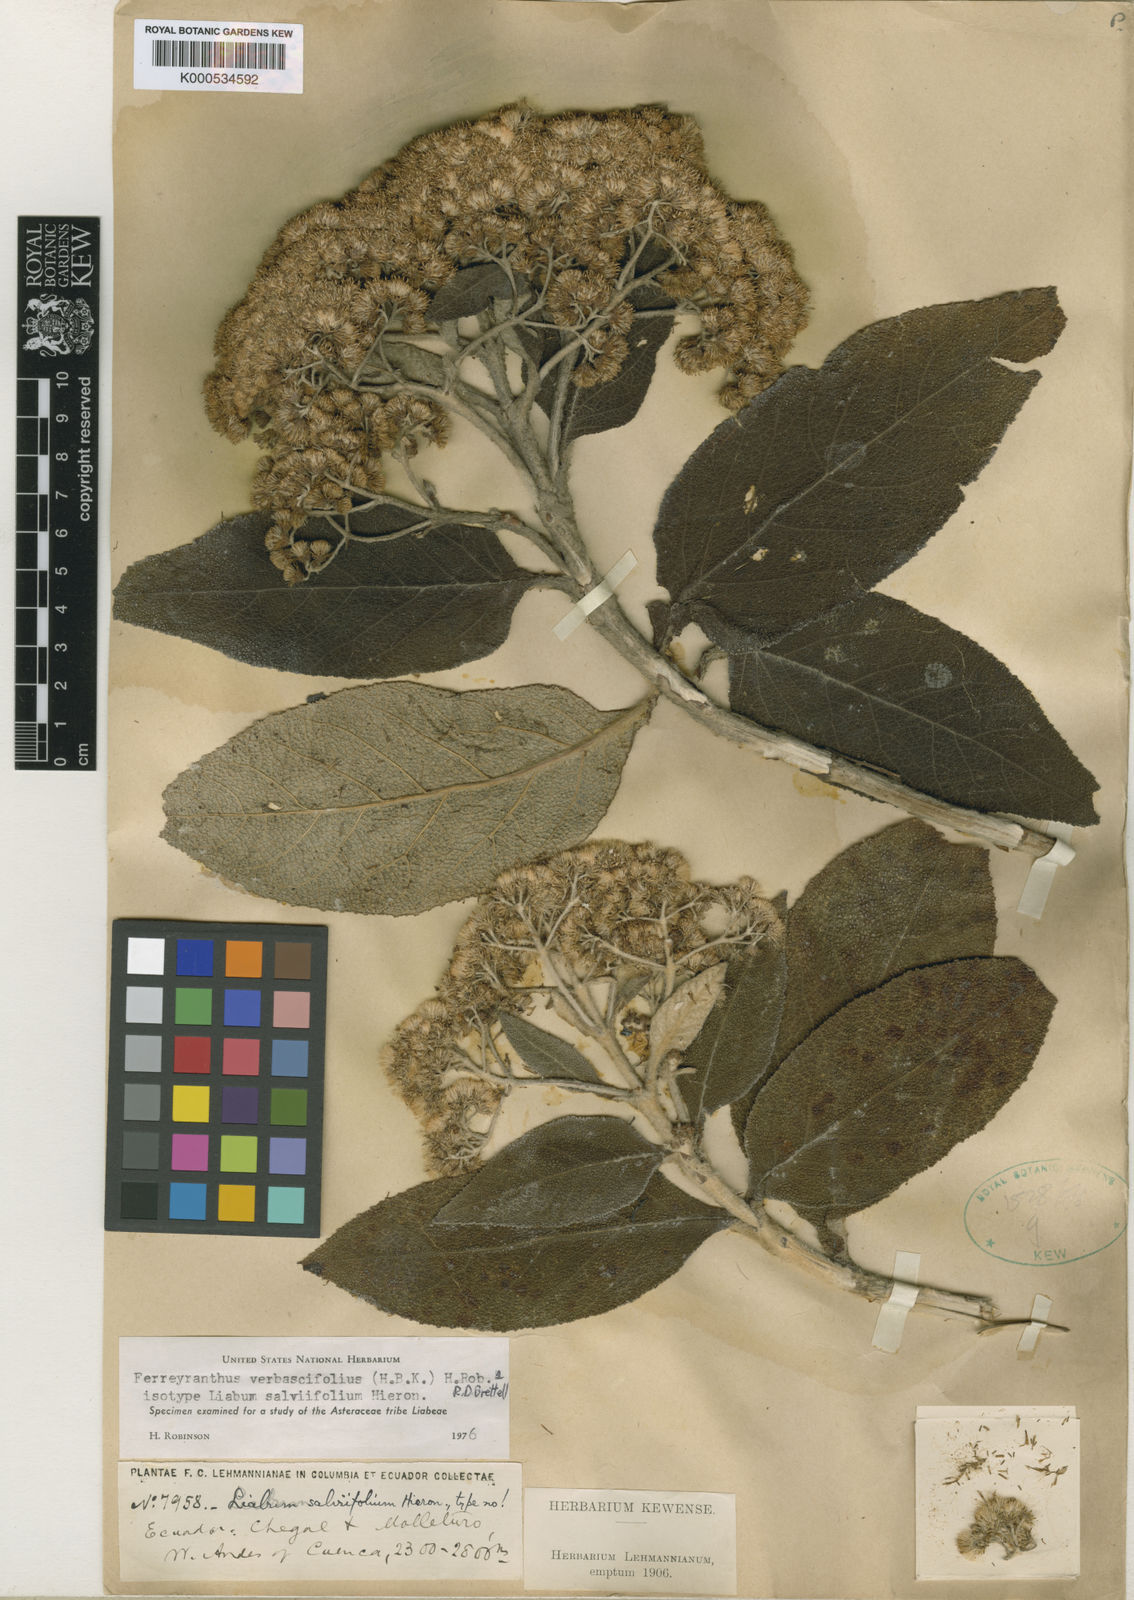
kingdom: Plantae
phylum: Tracheophyta
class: Magnoliopsida
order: Asterales
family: Asteraceae
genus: Ferreyranthus
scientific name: Ferreyranthus verbascifolius
